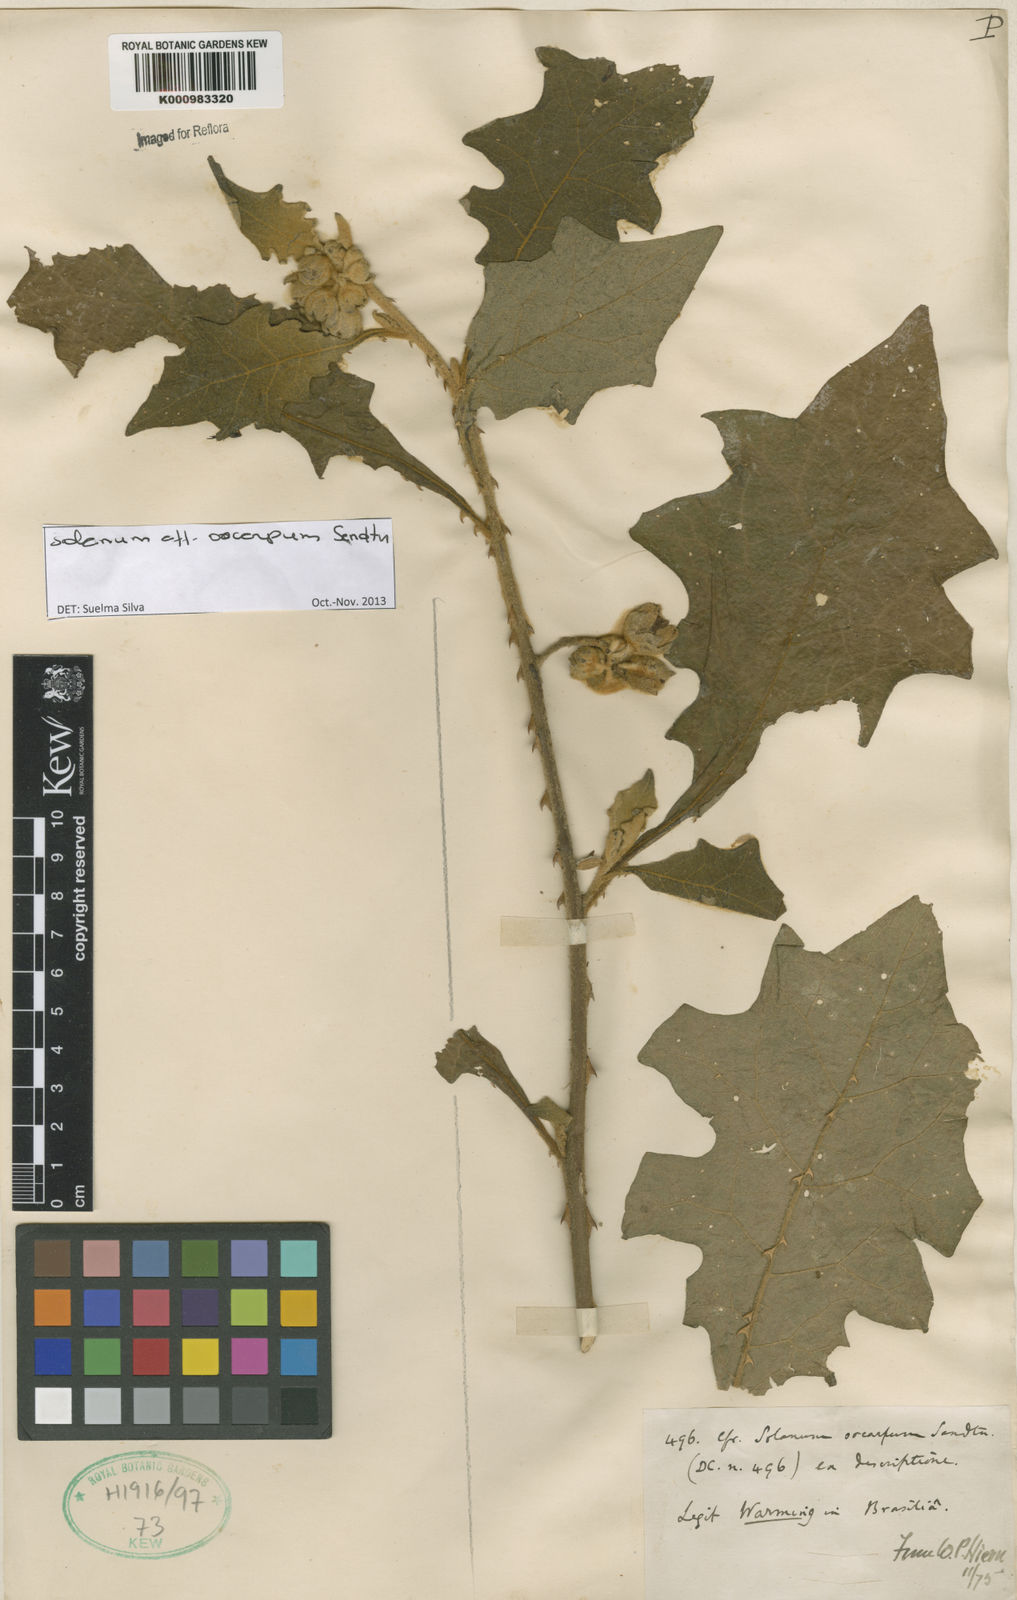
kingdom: Plantae
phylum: Tracheophyta
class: Magnoliopsida
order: Solanales
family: Solanaceae
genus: Solanum
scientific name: Solanum oocarpum
